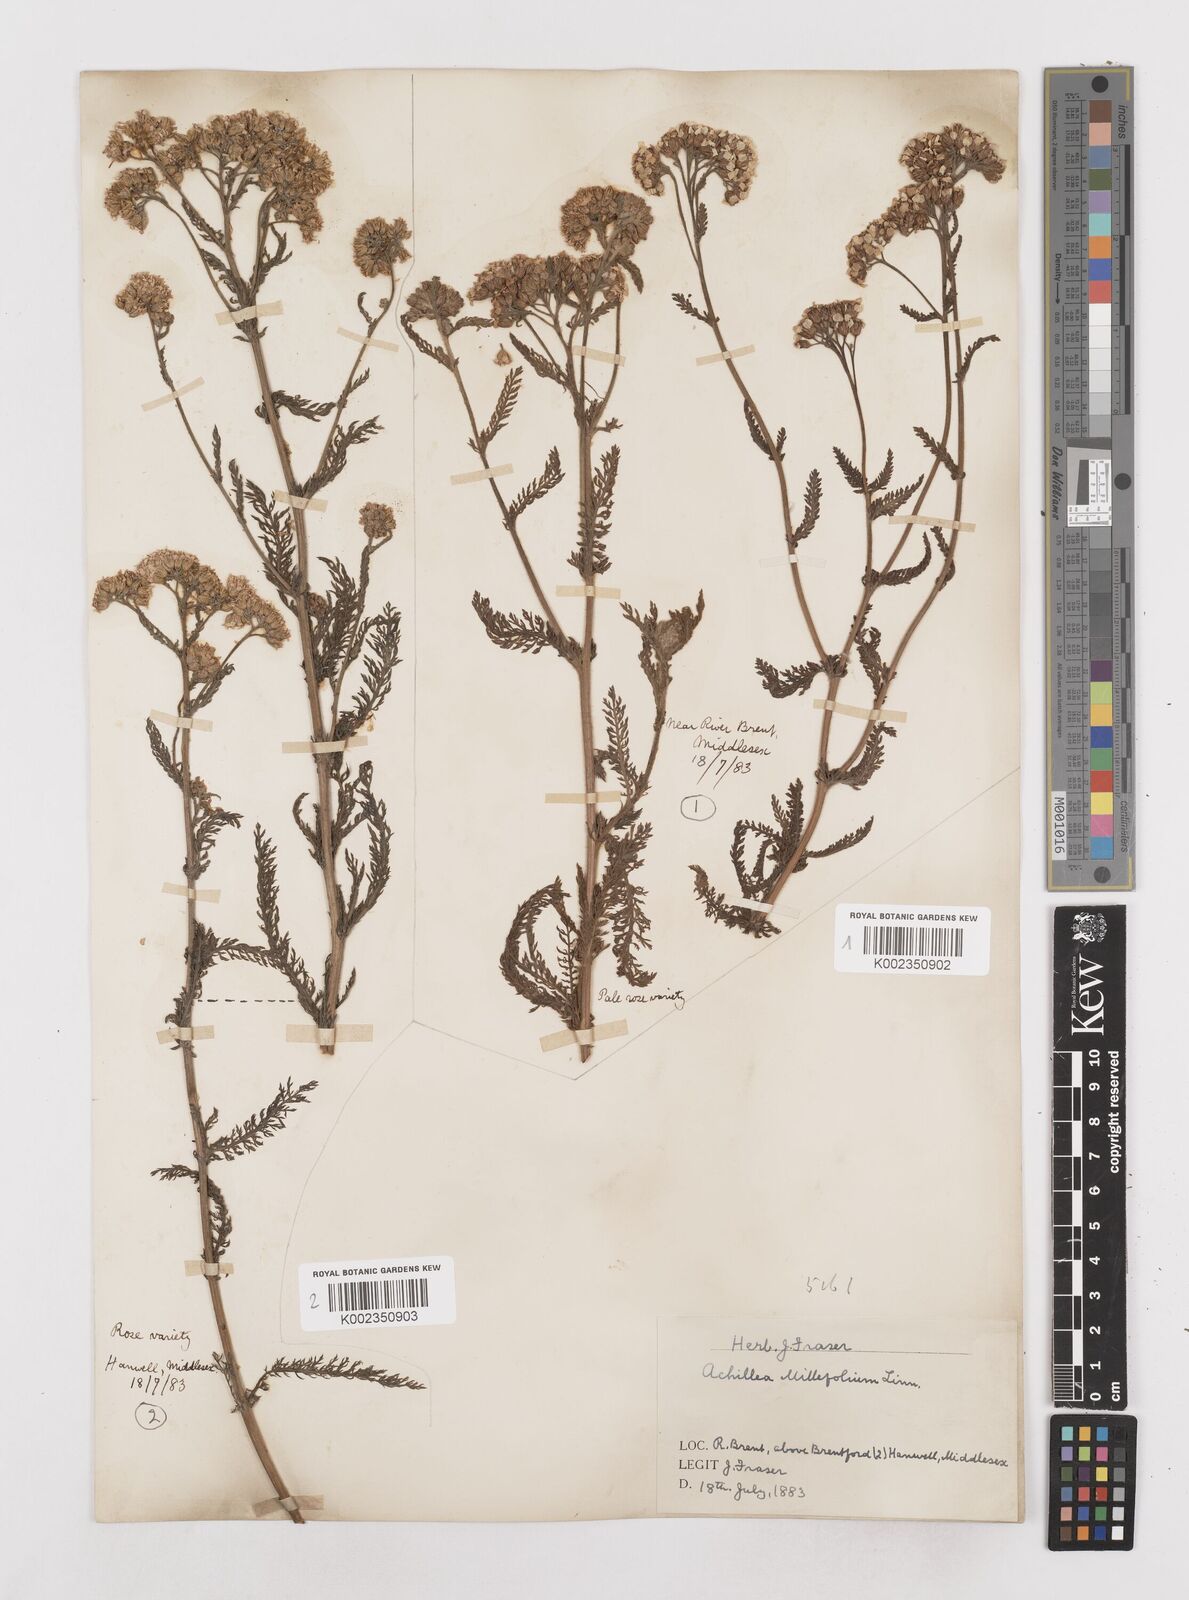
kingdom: Plantae
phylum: Tracheophyta
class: Magnoliopsida
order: Asterales
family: Asteraceae
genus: Achillea
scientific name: Achillea millefolium
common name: Yarrow
